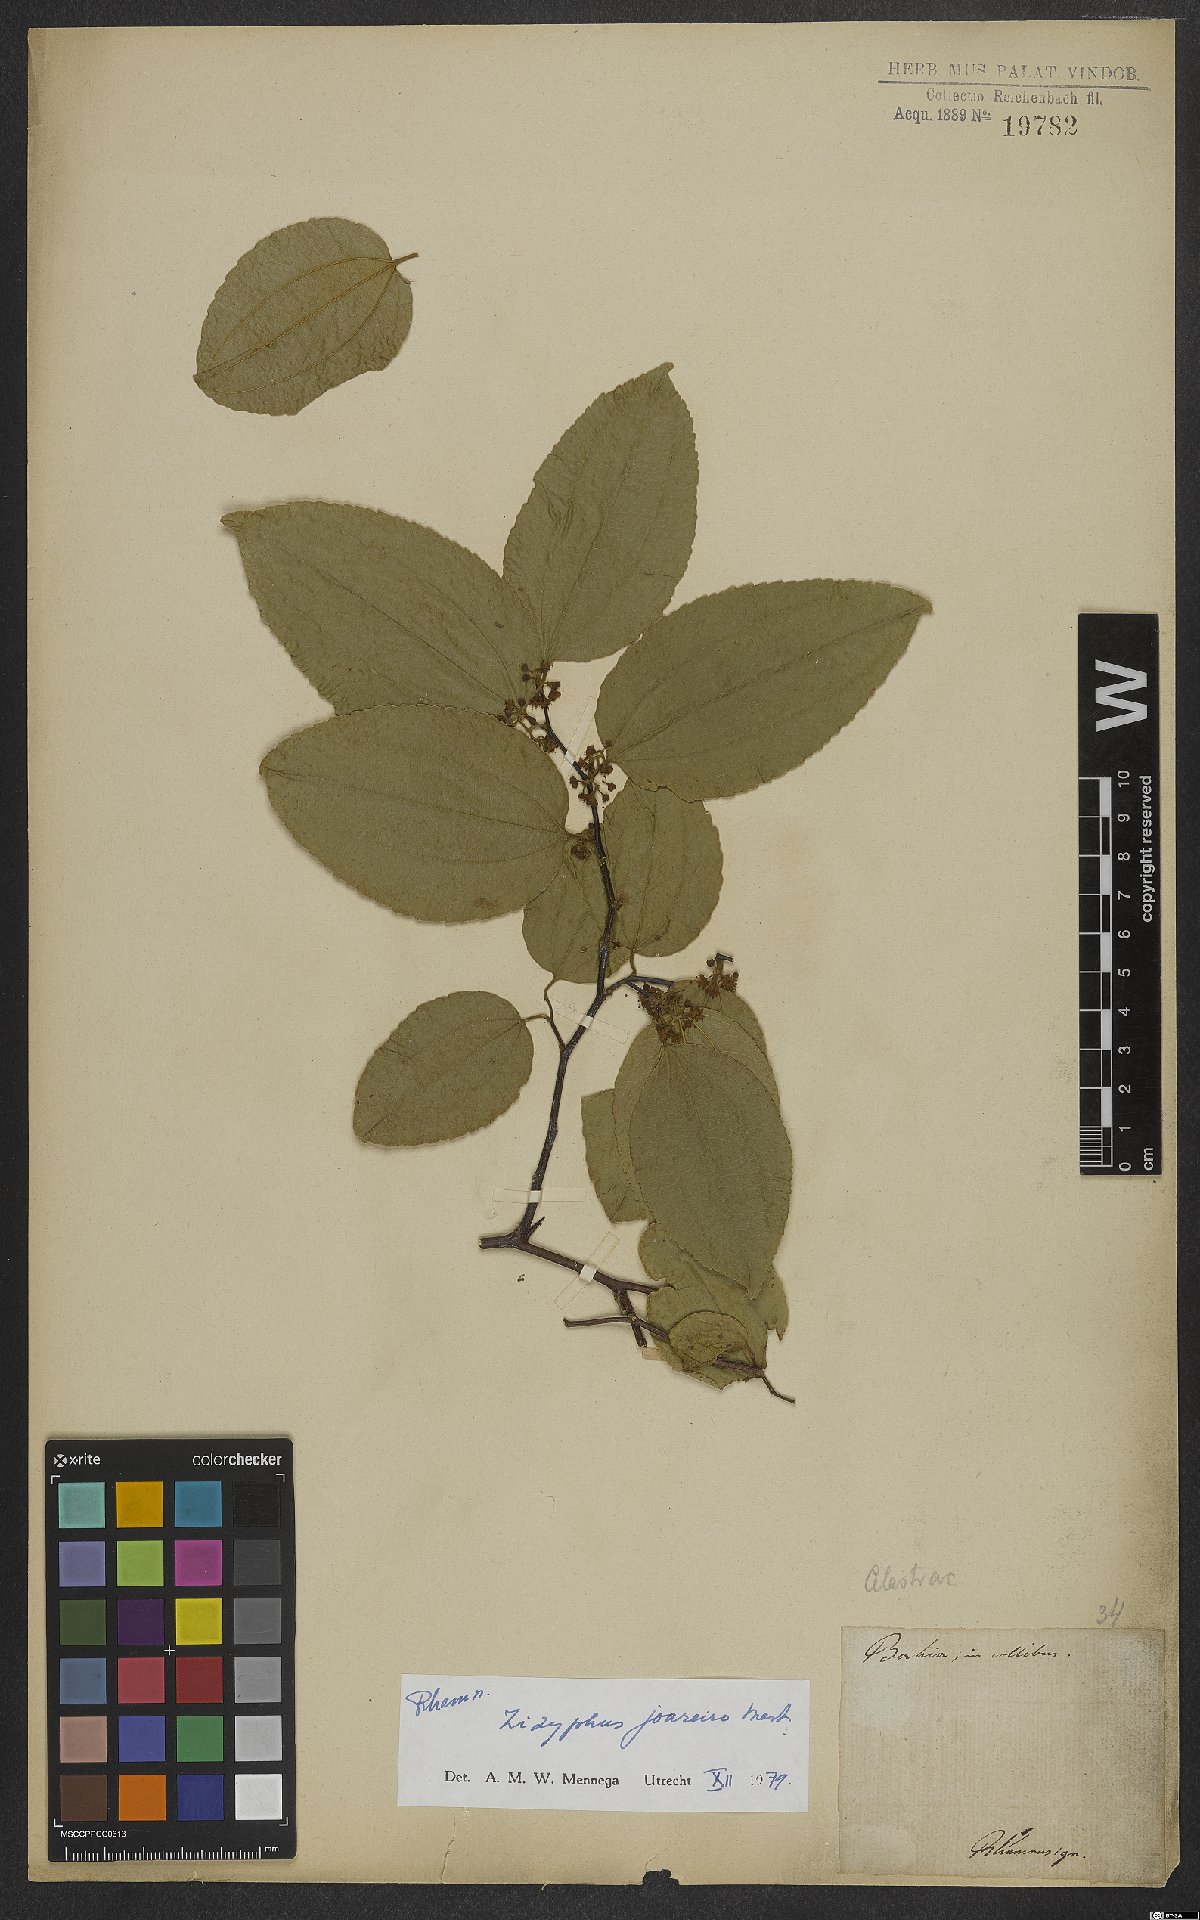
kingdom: Plantae
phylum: Tracheophyta
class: Magnoliopsida
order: Rosales
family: Rhamnaceae
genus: Sarcomphalus
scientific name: Sarcomphalus joazeiro
